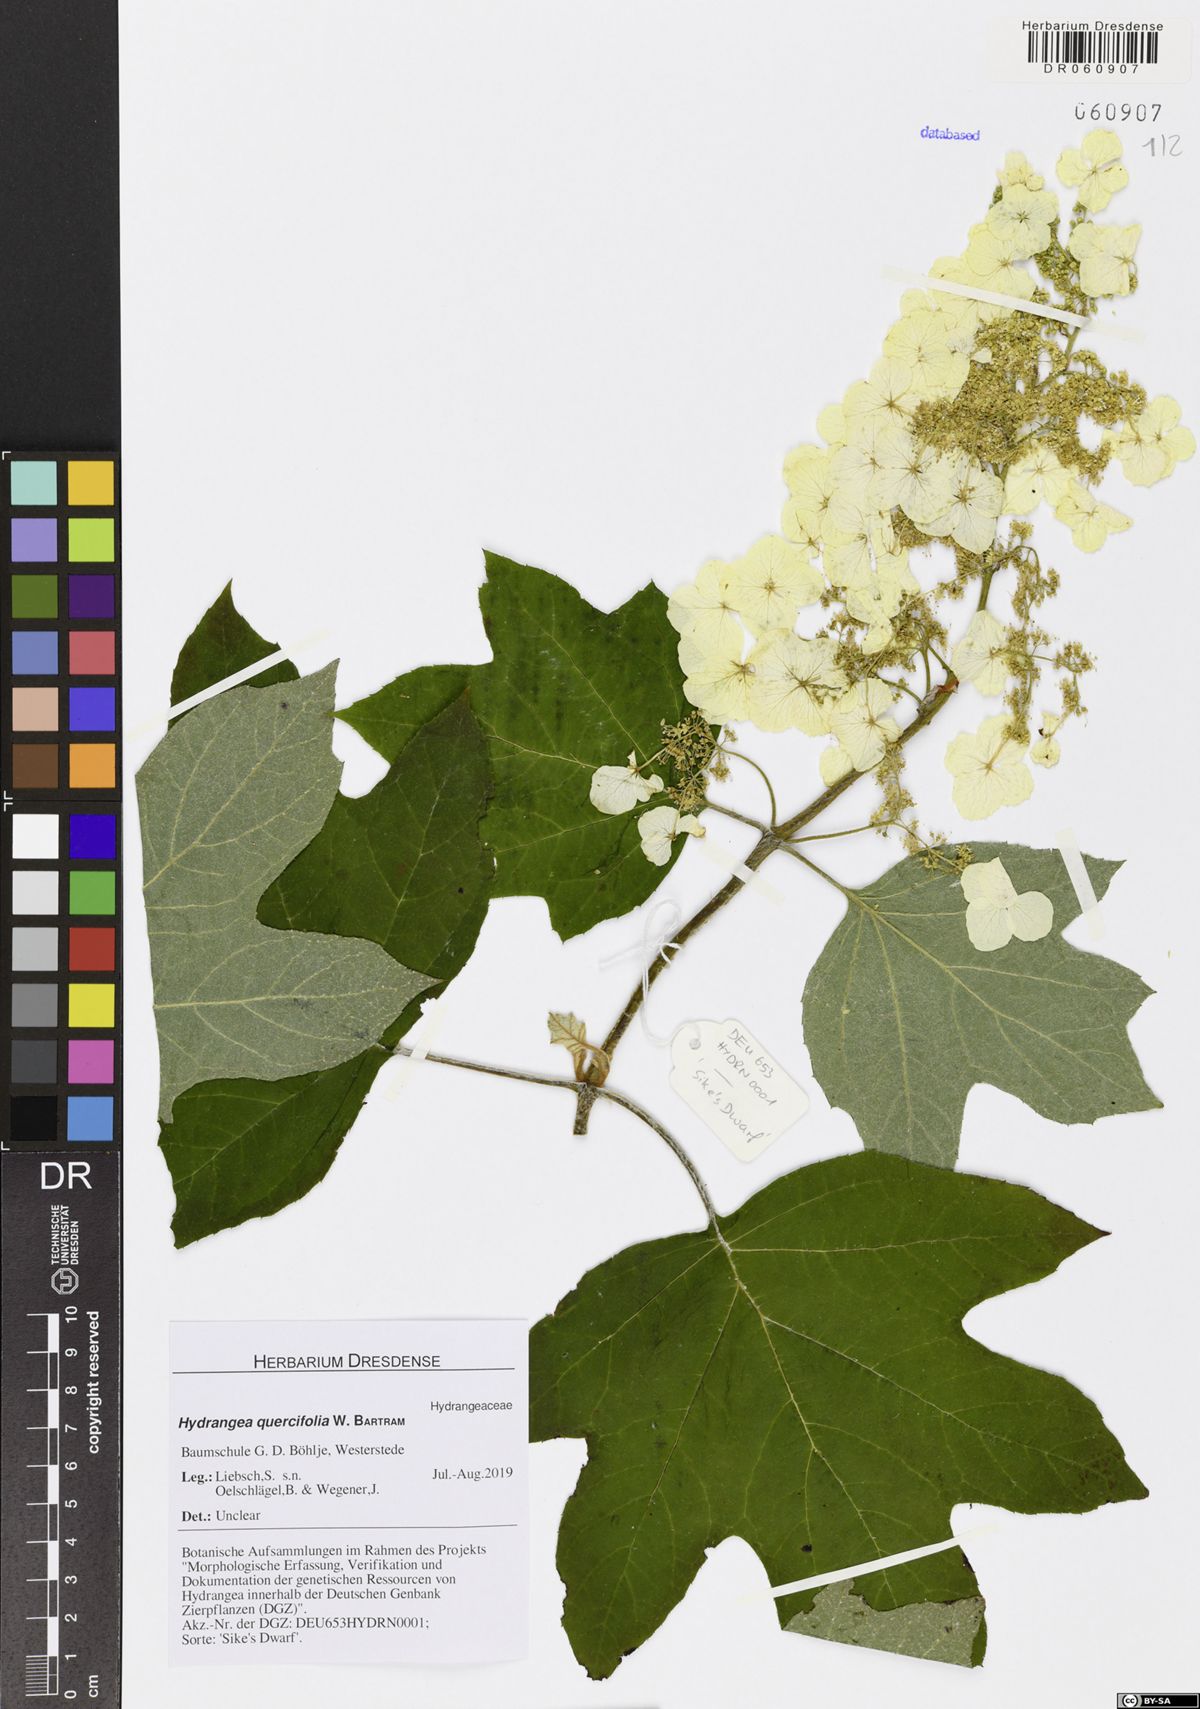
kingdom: Plantae
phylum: Tracheophyta
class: Magnoliopsida
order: Cornales
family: Hydrangeaceae
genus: Hydrangea
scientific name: Hydrangea quercifolia
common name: Oak-leaf hydrangea
